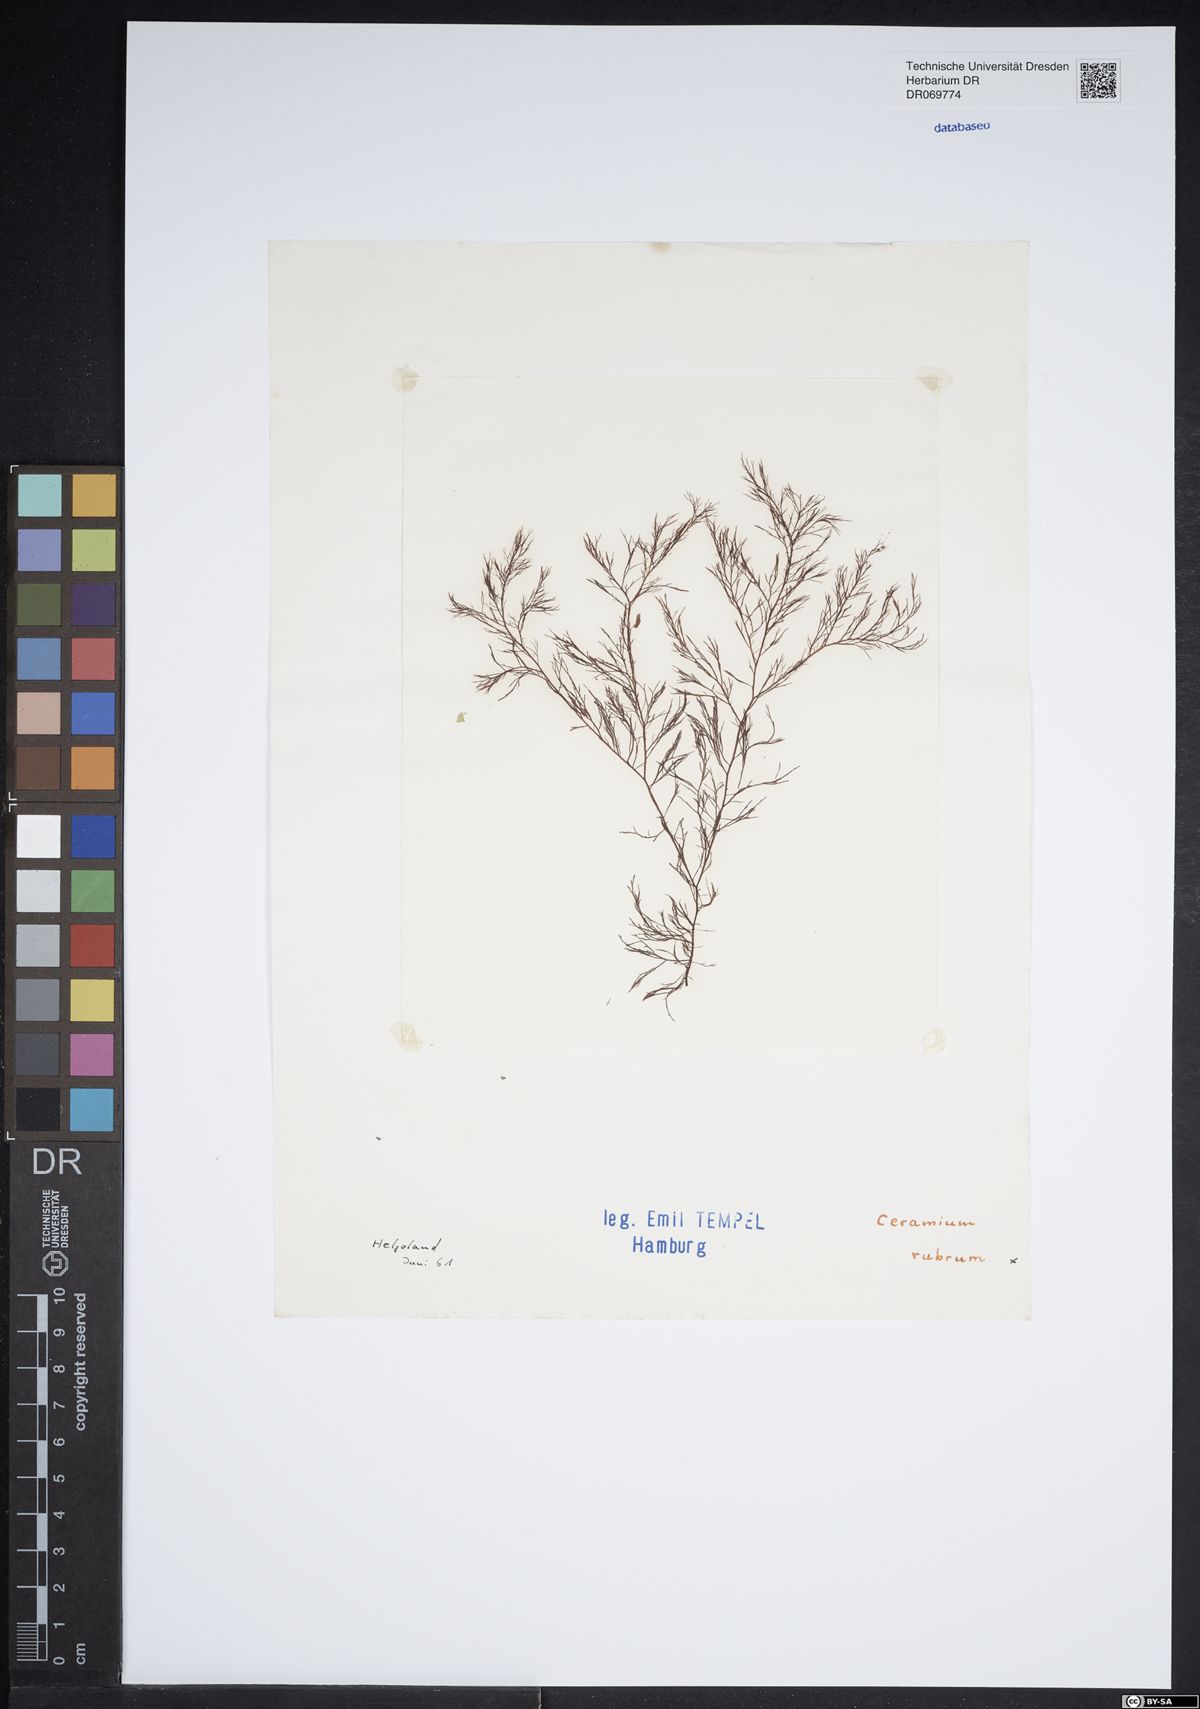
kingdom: Plantae
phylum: Rhodophyta
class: Florideophyceae
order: Ceramiales
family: Ceramiaceae
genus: Ceramium
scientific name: Ceramium virgatum
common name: Red hornweed
